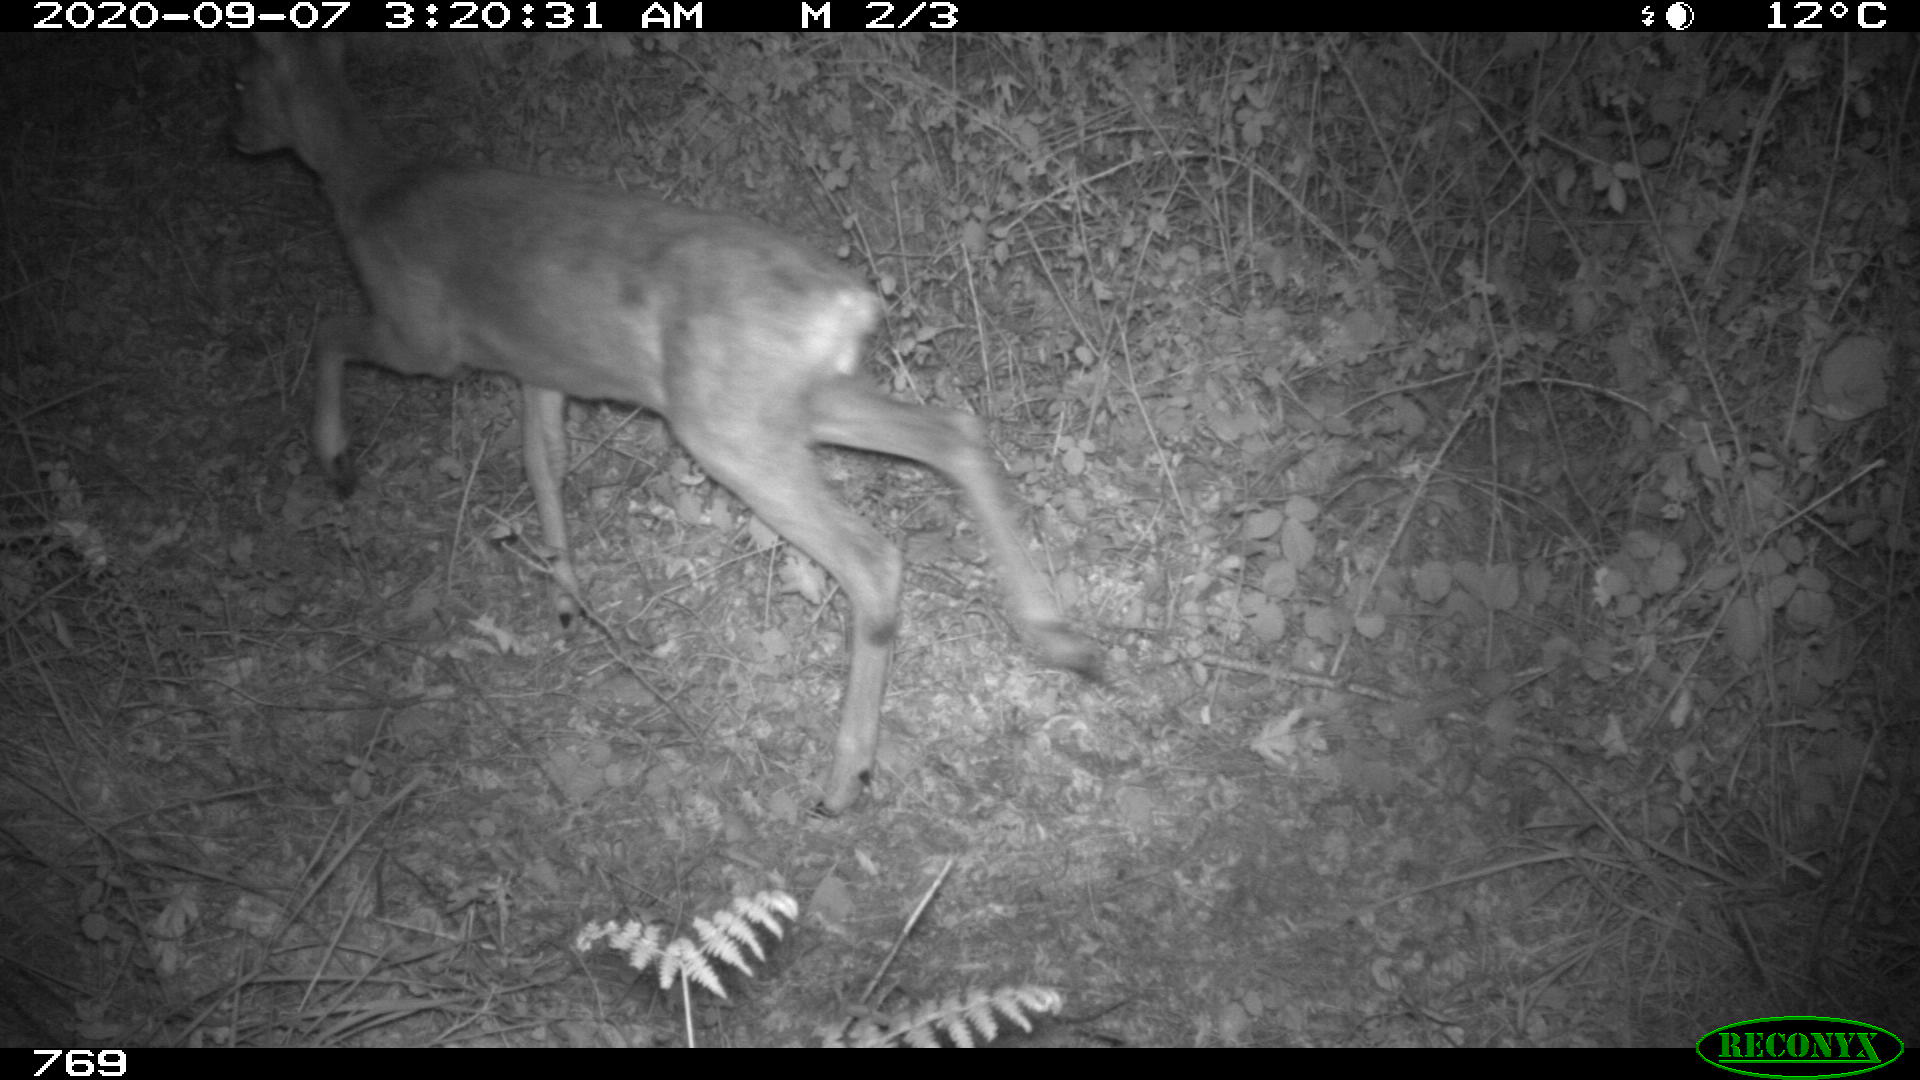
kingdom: Animalia
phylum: Chordata
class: Mammalia
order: Artiodactyla
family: Cervidae
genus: Capreolus
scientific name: Capreolus capreolus
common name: Western roe deer
